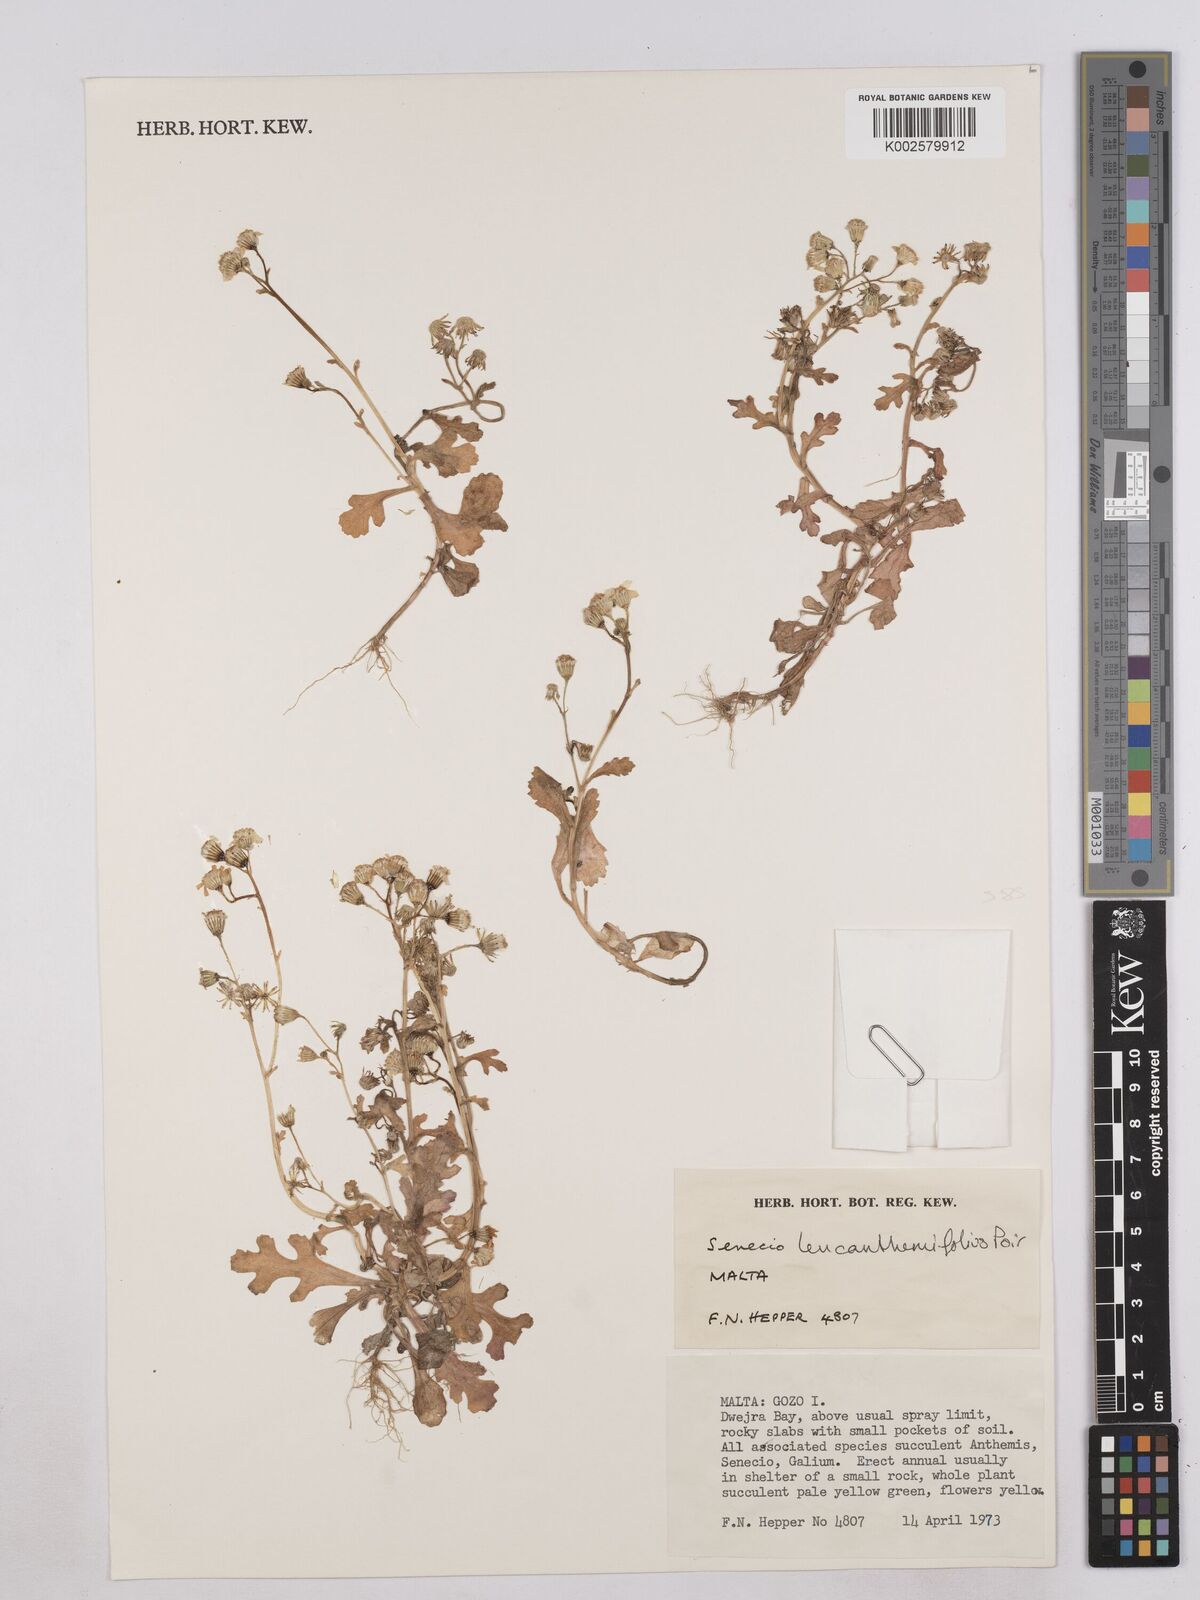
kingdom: Plantae
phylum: Tracheophyta
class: Magnoliopsida
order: Asterales
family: Asteraceae
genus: Senecio
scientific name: Senecio
